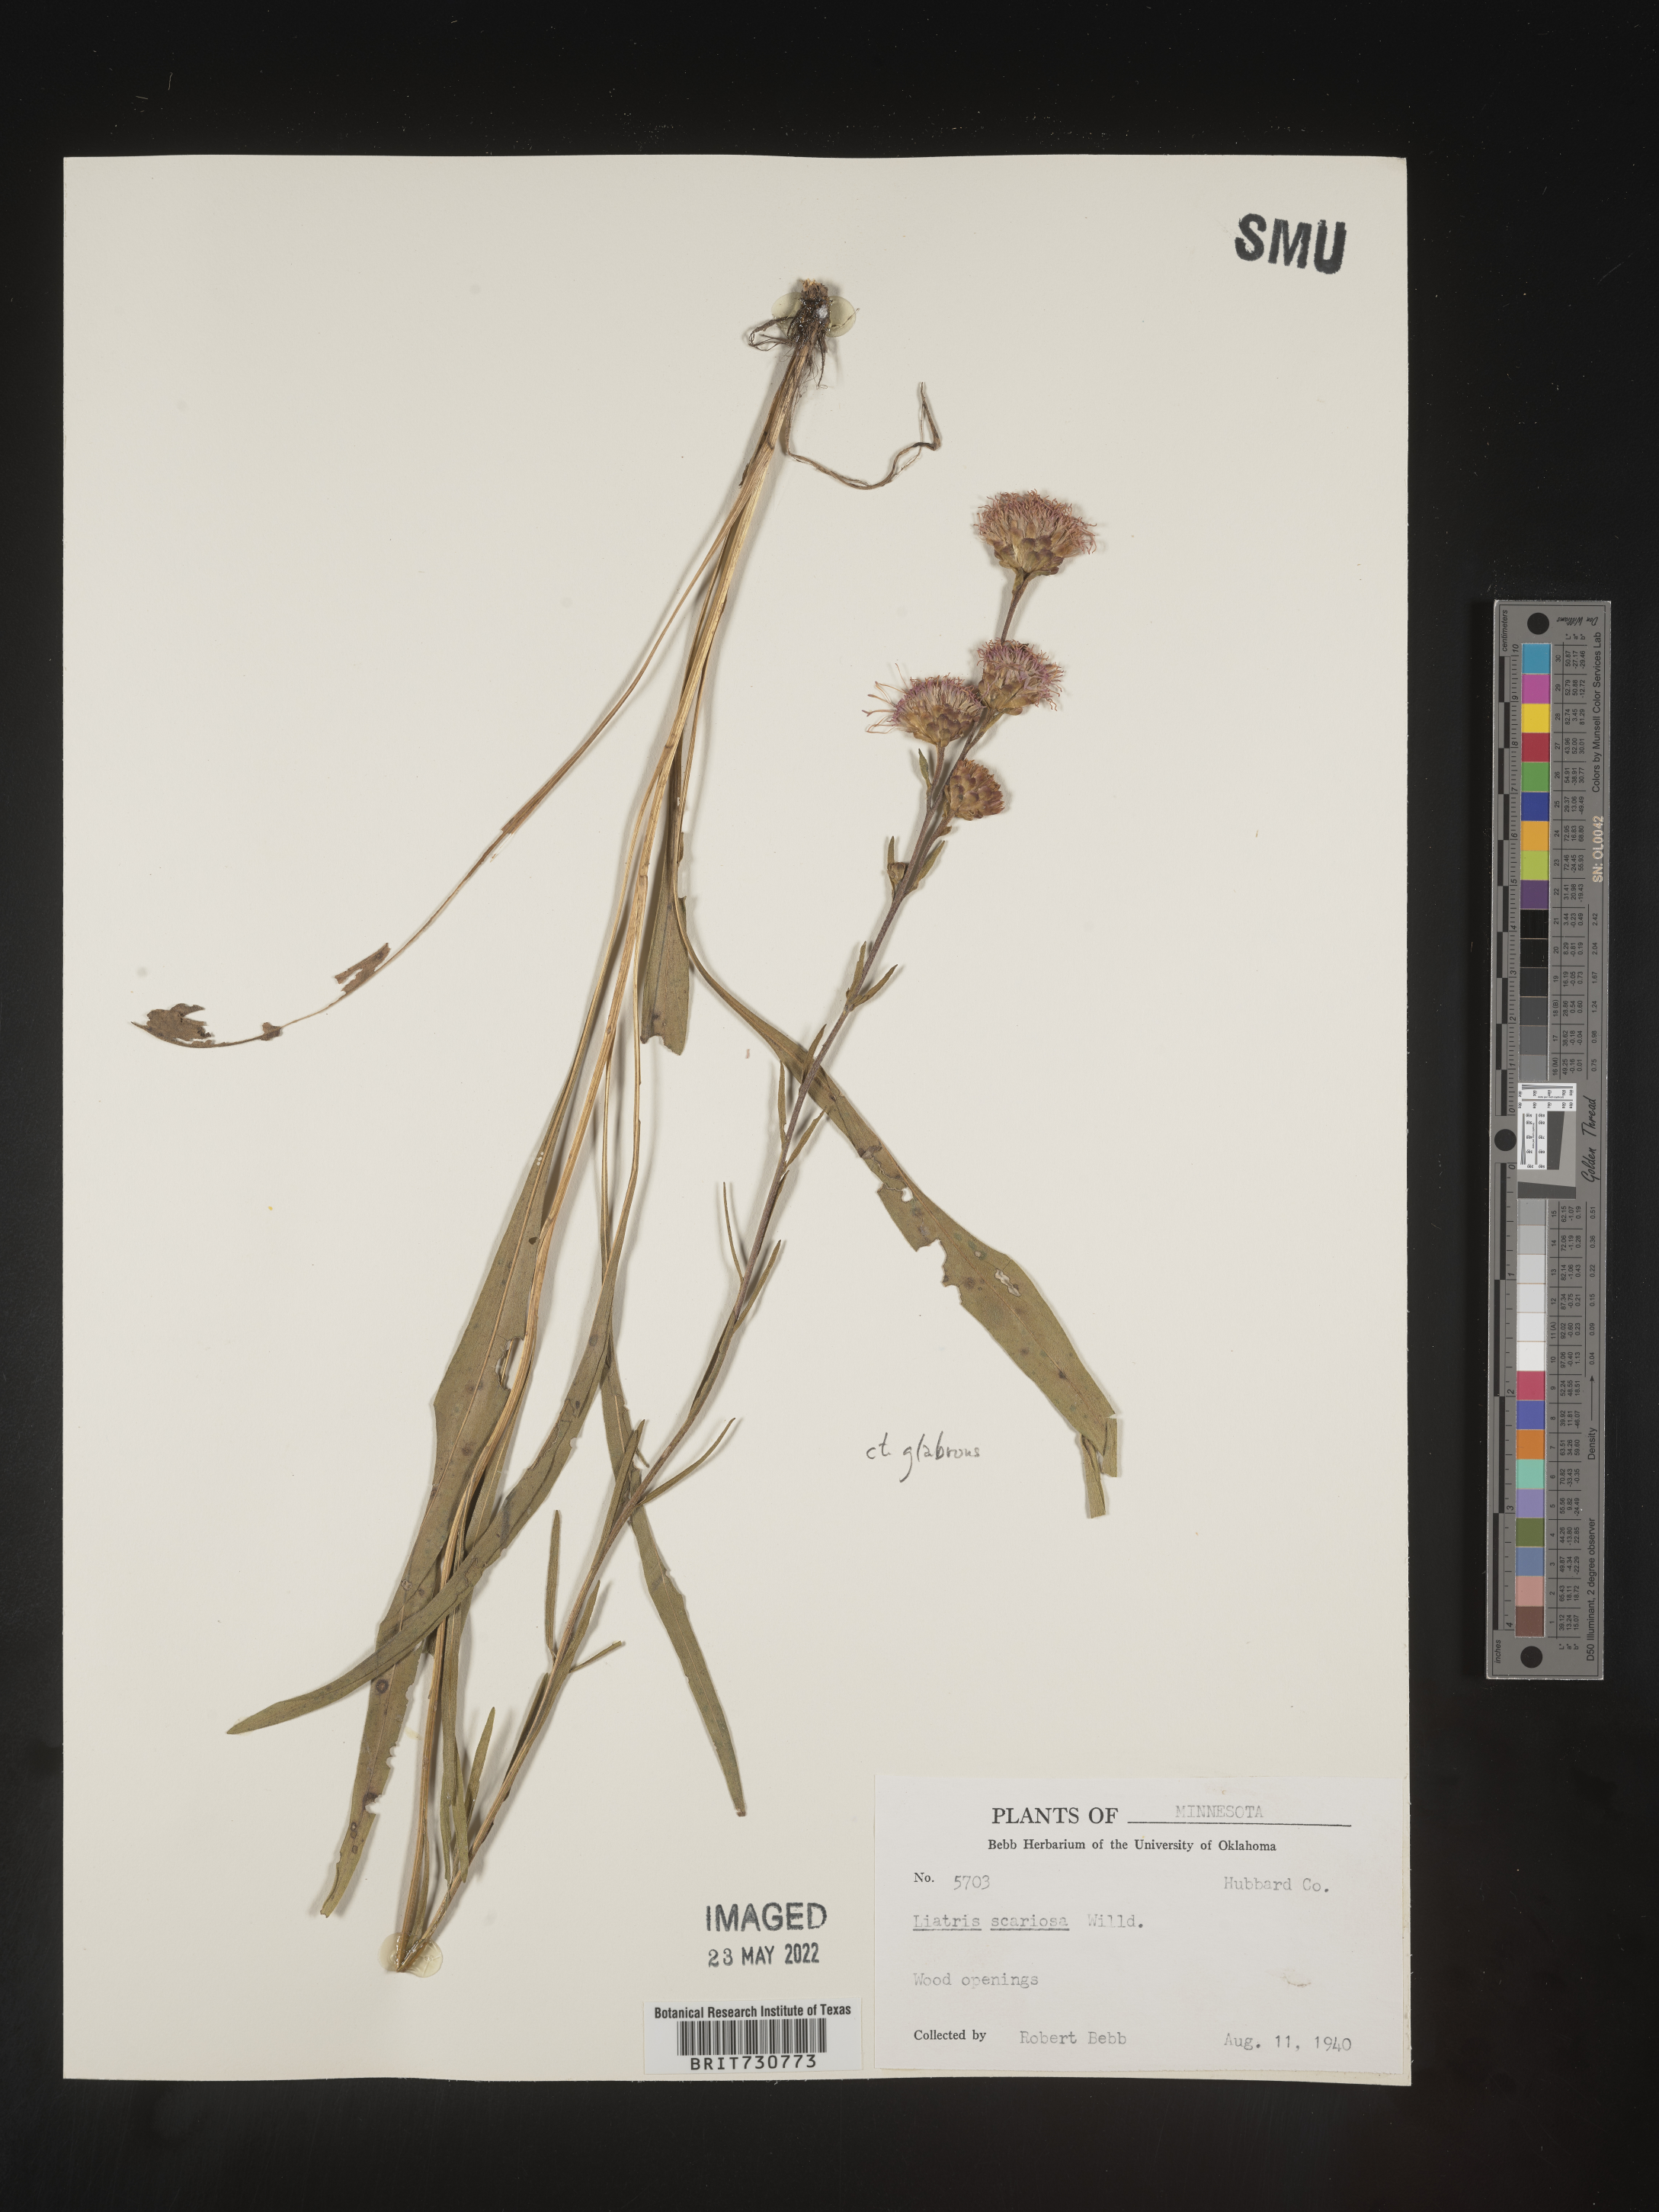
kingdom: Plantae
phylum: Tracheophyta
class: Magnoliopsida
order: Asterales
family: Asteraceae
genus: Liatris
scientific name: Liatris ligulistylis
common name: Northern plains gayfeather
